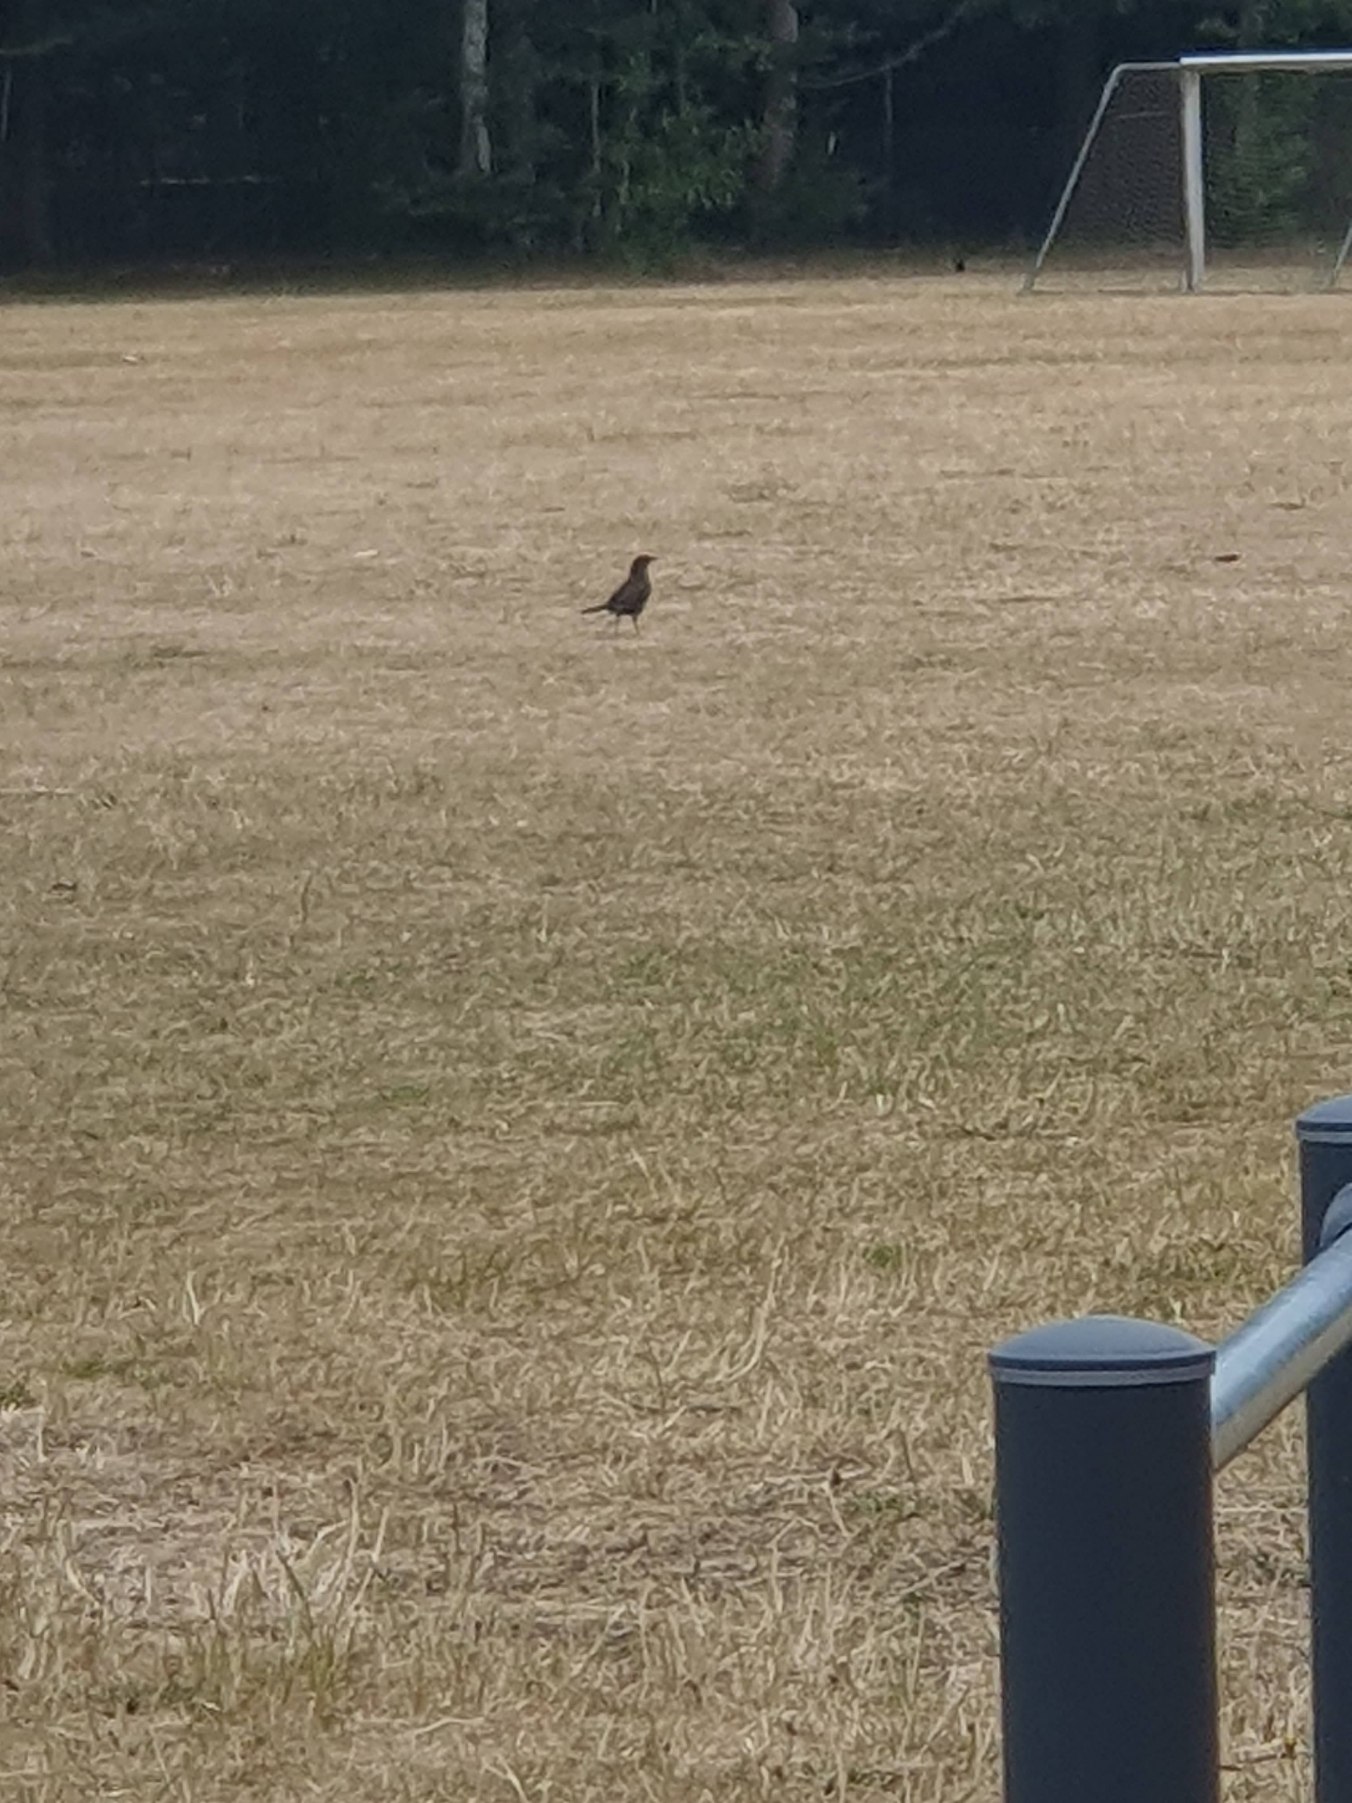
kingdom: Animalia
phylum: Chordata
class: Aves
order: Passeriformes
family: Turdidae
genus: Turdus
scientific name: Turdus merula
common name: Solsort
